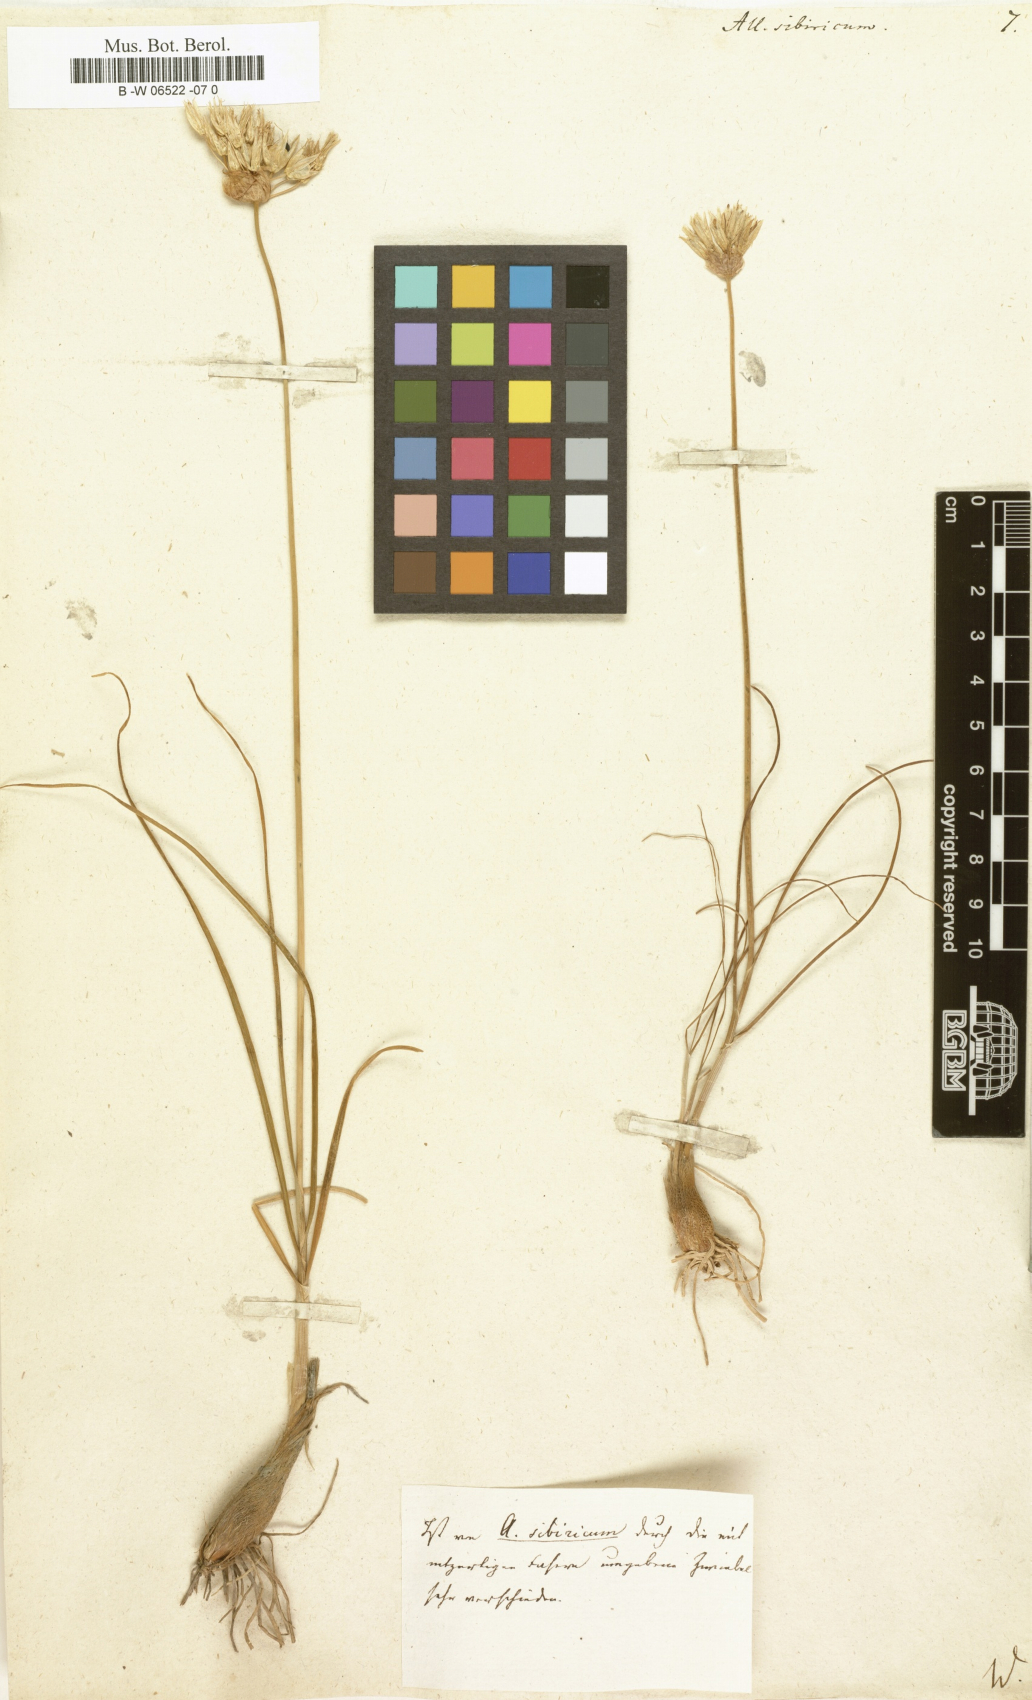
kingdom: Plantae
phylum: Tracheophyta
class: Liliopsida
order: Asparagales
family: Amaryllidaceae
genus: Allium
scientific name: Allium schoenoprasum
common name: Chives
